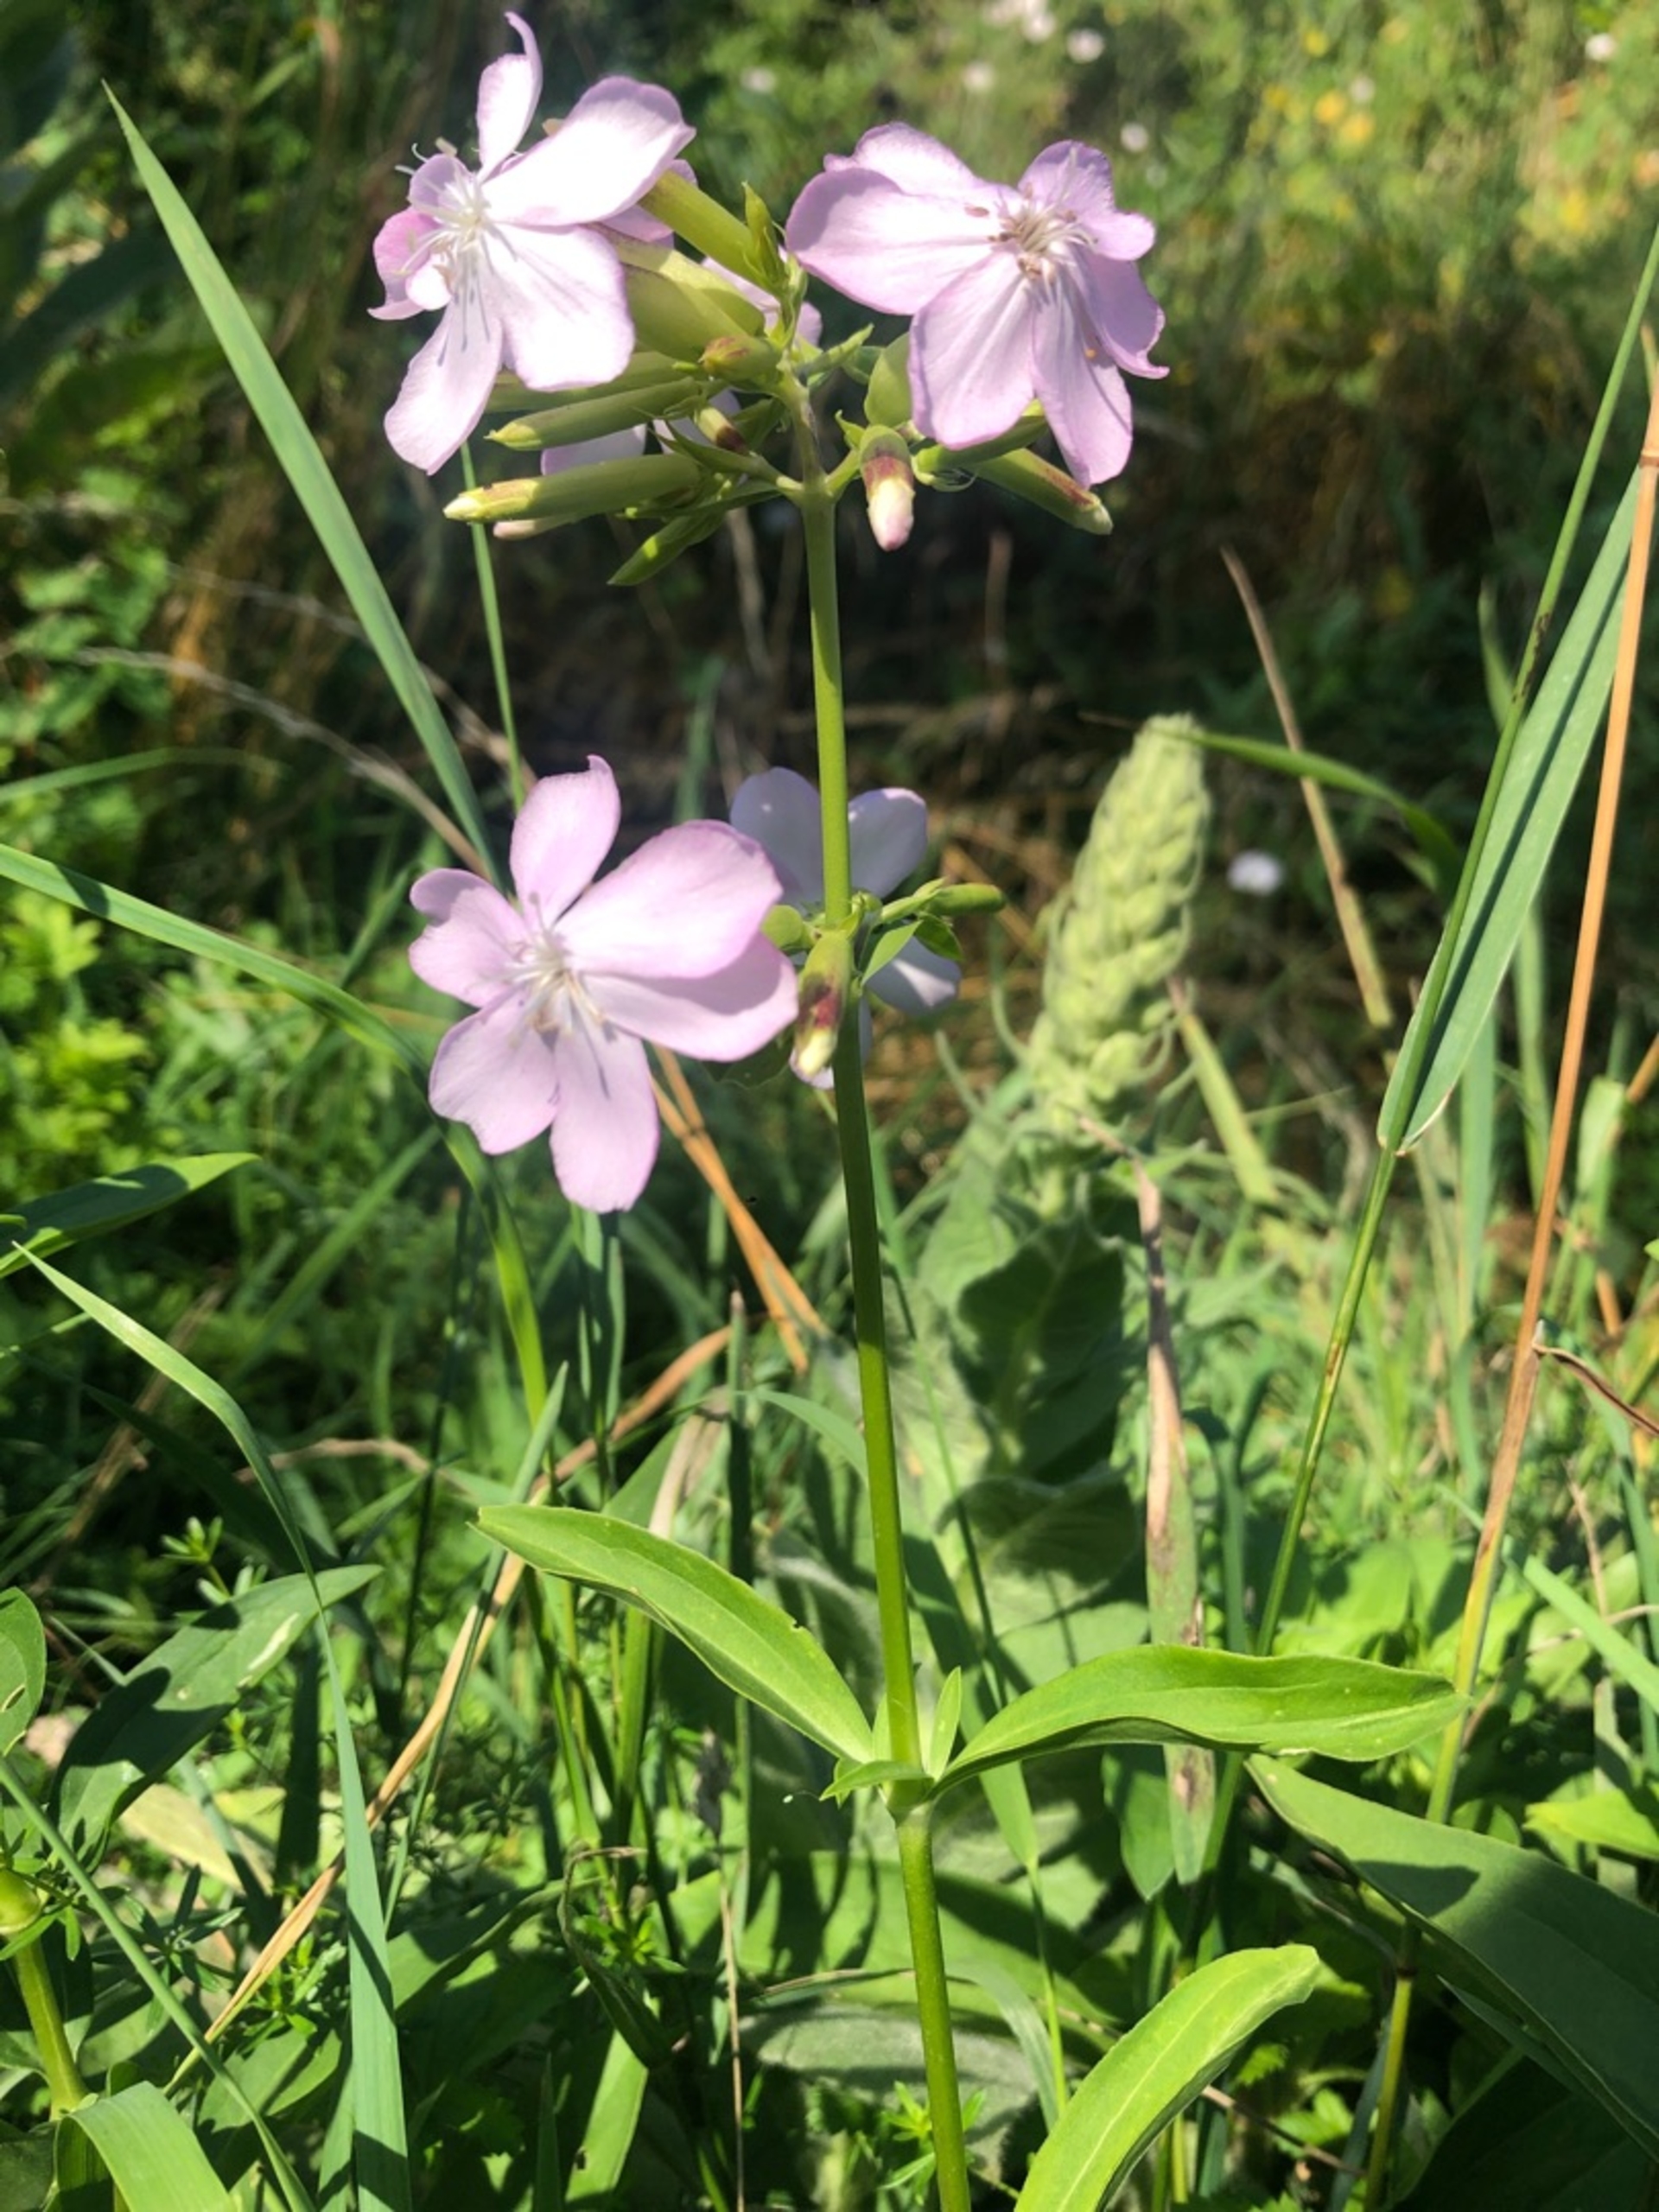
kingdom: Plantae
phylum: Tracheophyta
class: Magnoliopsida
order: Caryophyllales
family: Caryophyllaceae
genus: Saponaria
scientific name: Saponaria officinalis
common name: Sæbeurt
